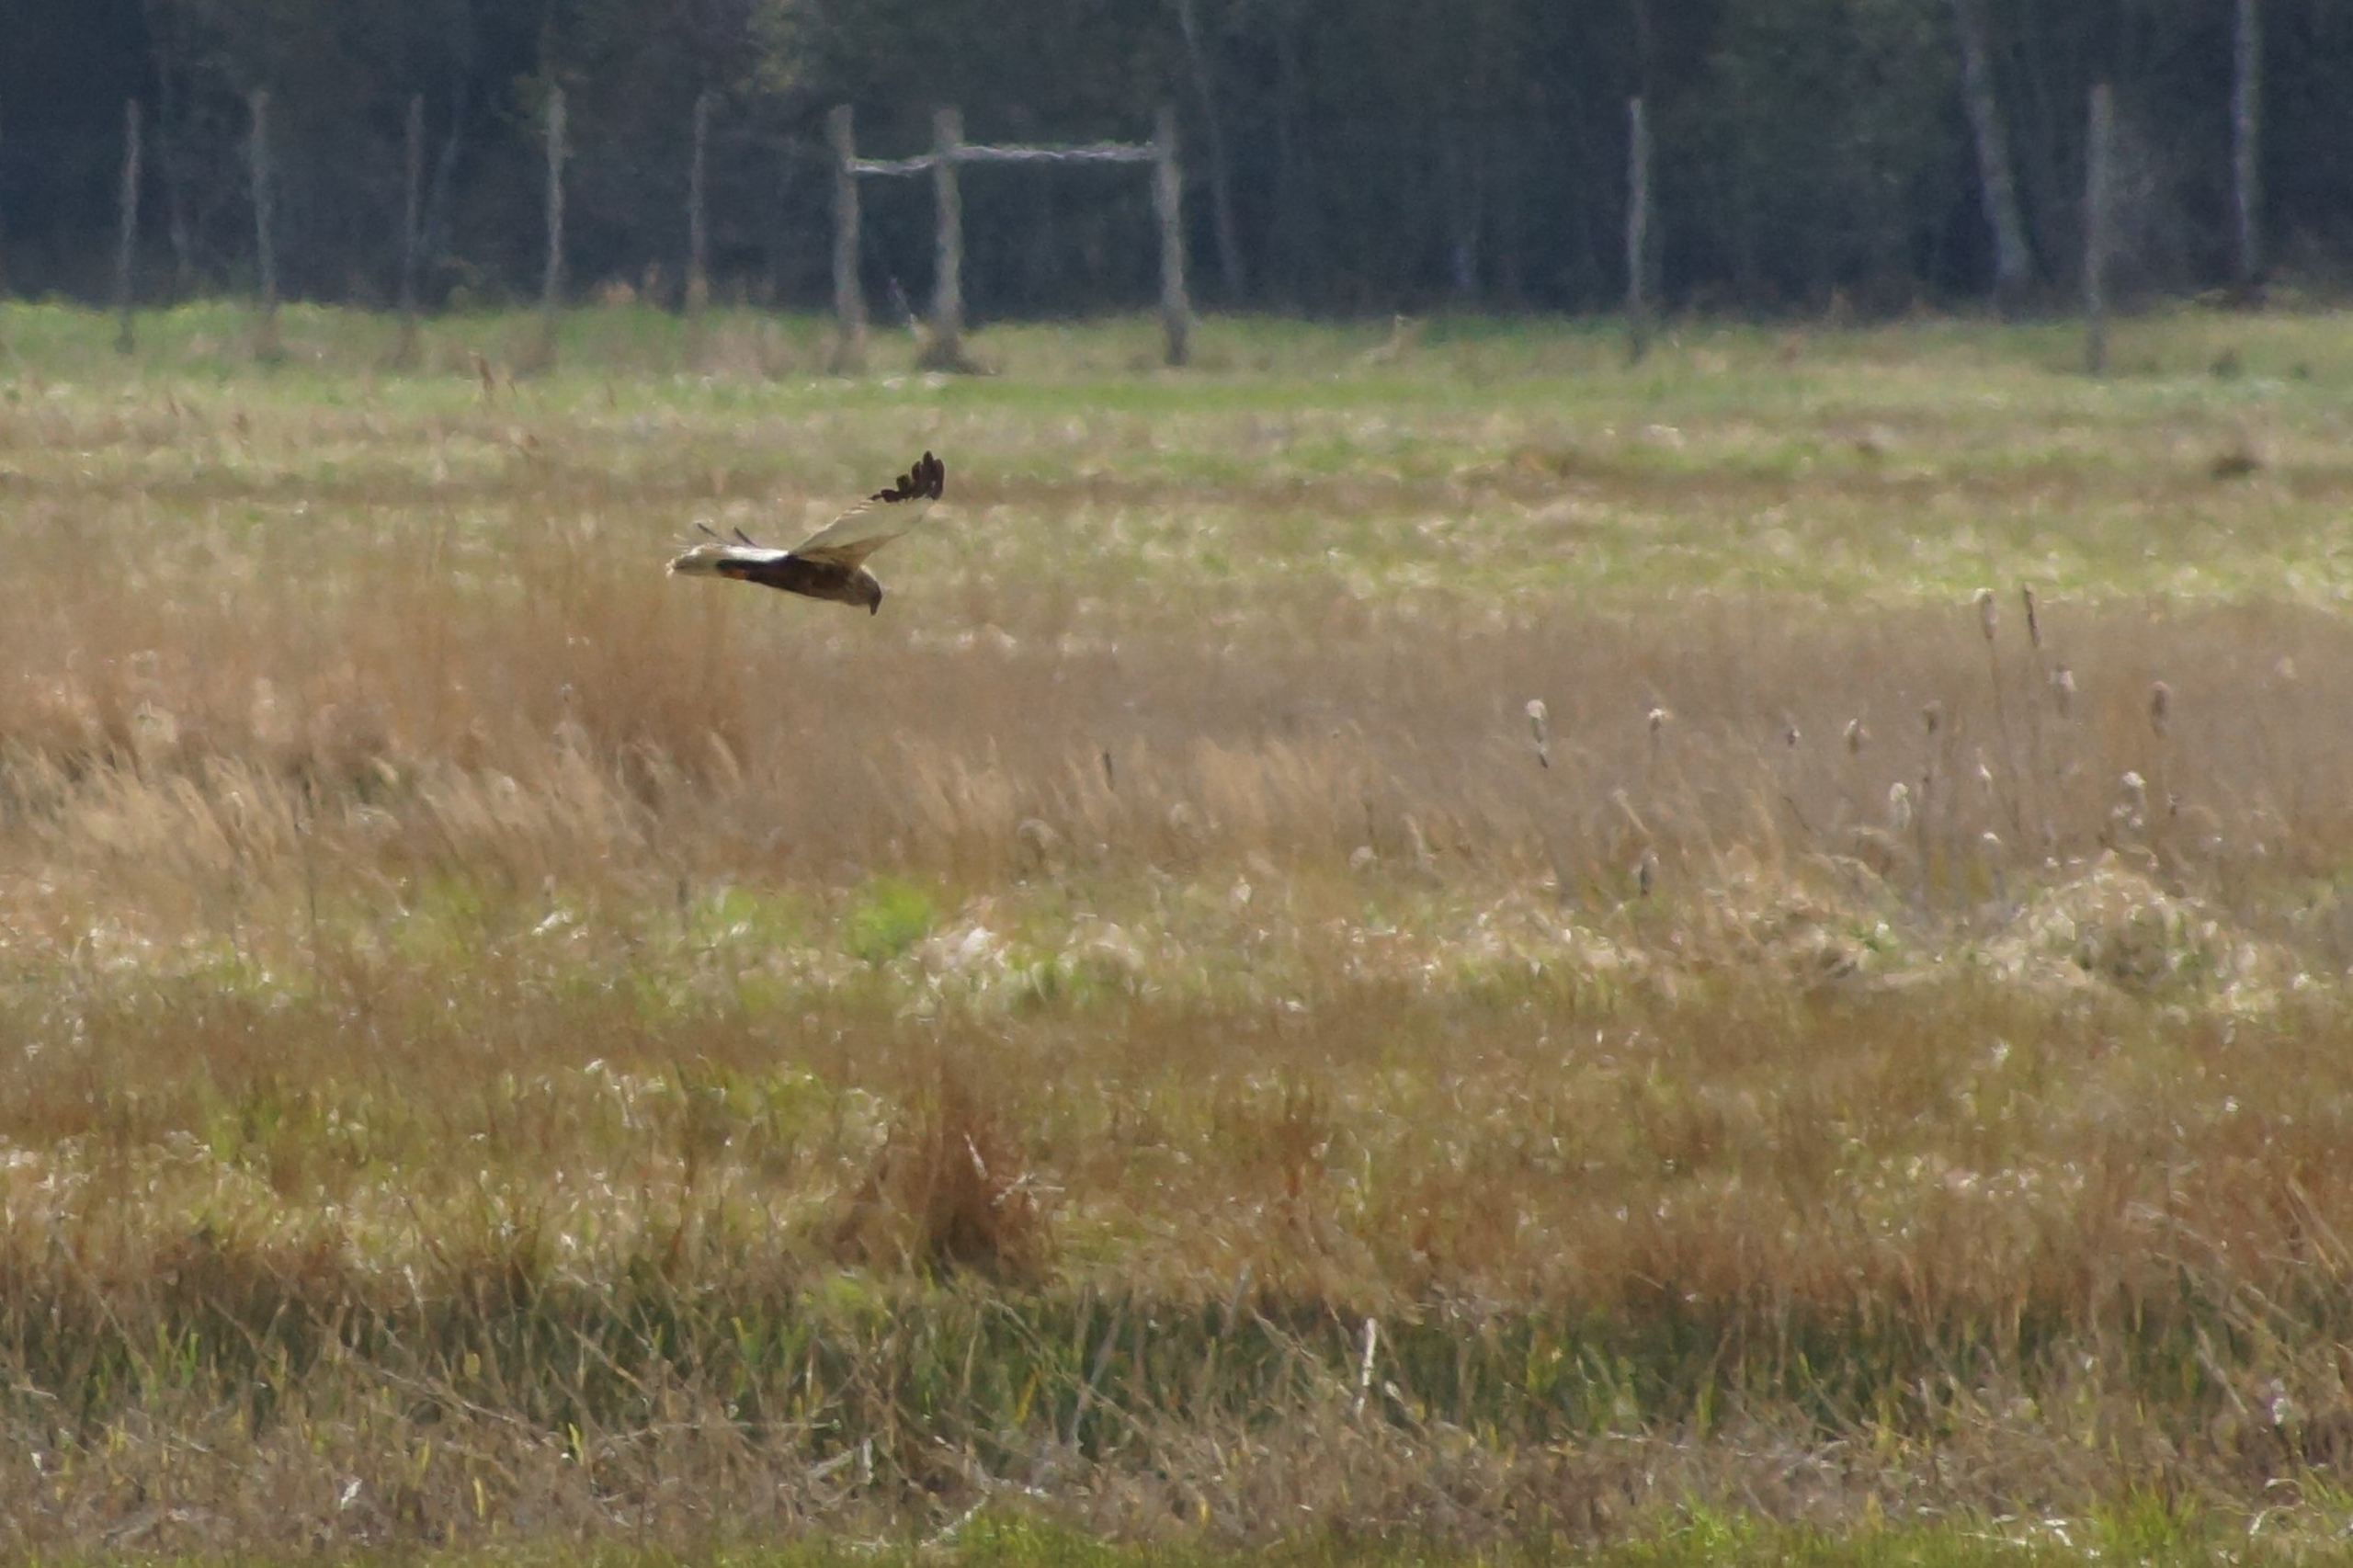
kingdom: Animalia
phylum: Chordata
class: Aves
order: Accipitriformes
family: Accipitridae
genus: Circus
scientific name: Circus aeruginosus
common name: Rørhøg
